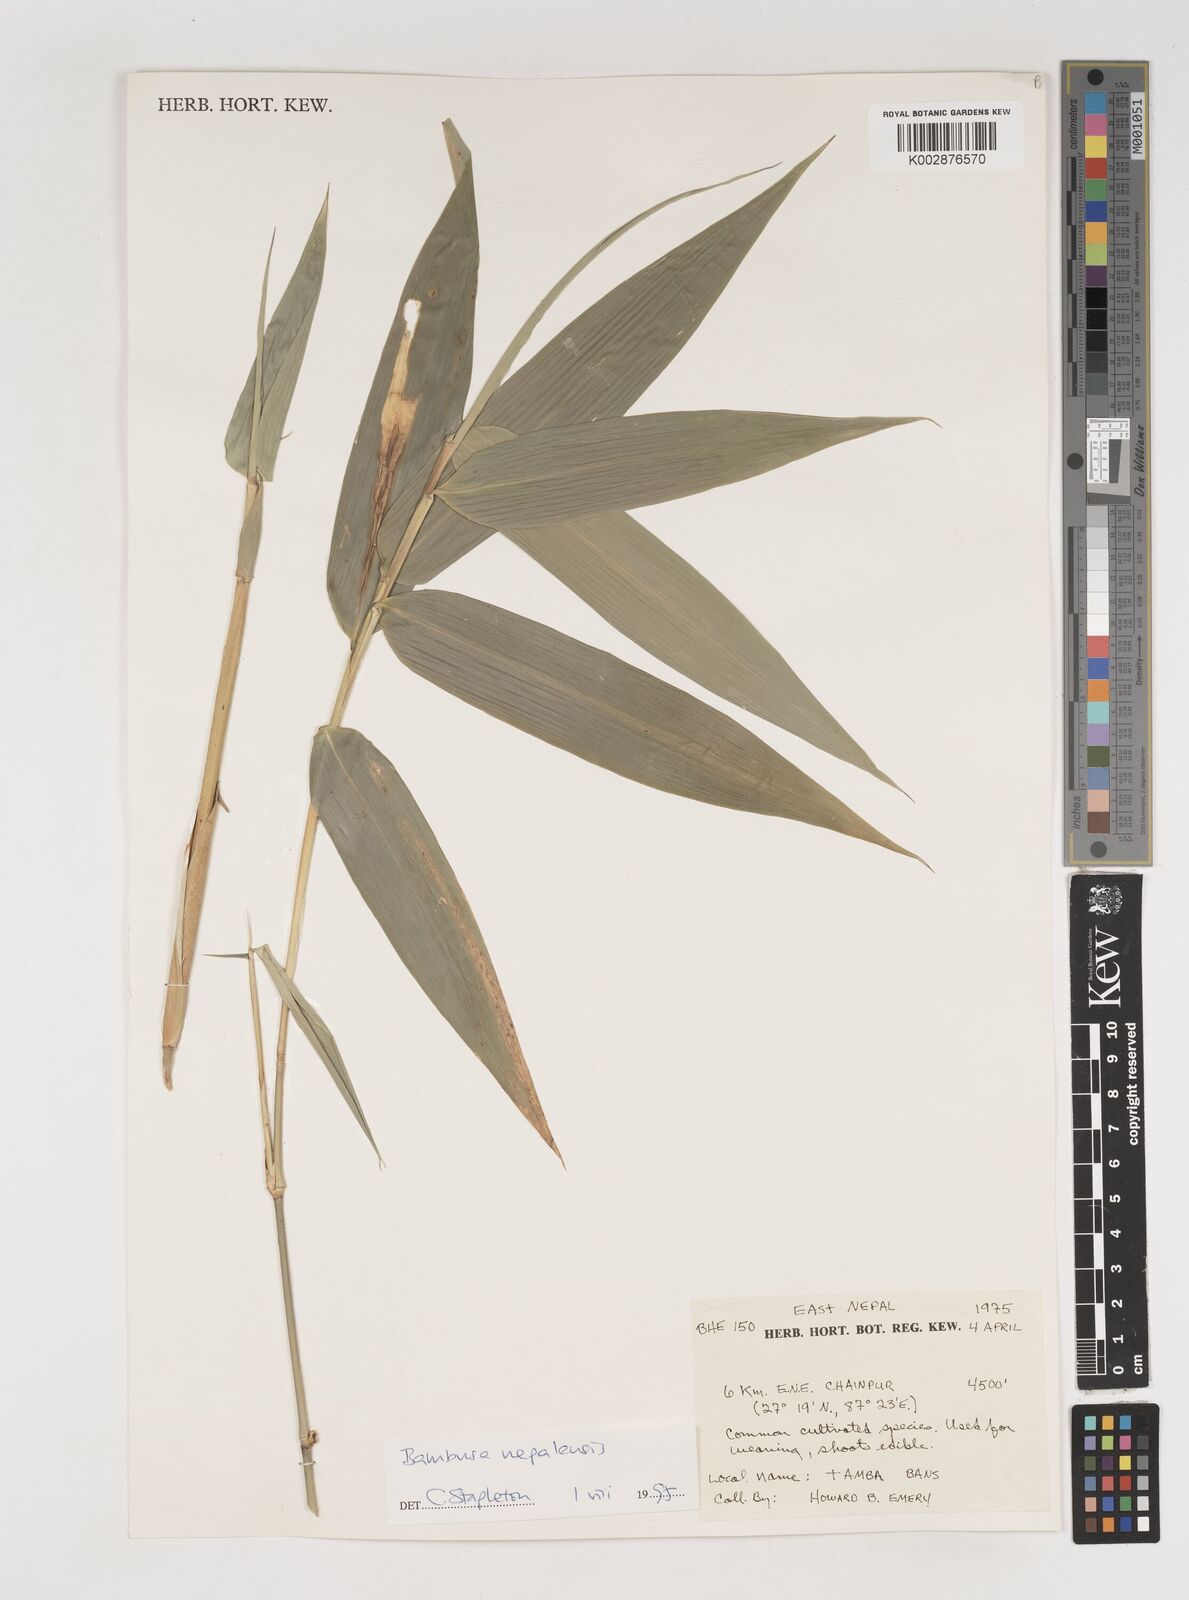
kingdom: Plantae
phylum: Tracheophyta
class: Liliopsida
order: Poales
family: Poaceae
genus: Bambusa
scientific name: Bambusa nepalensis
